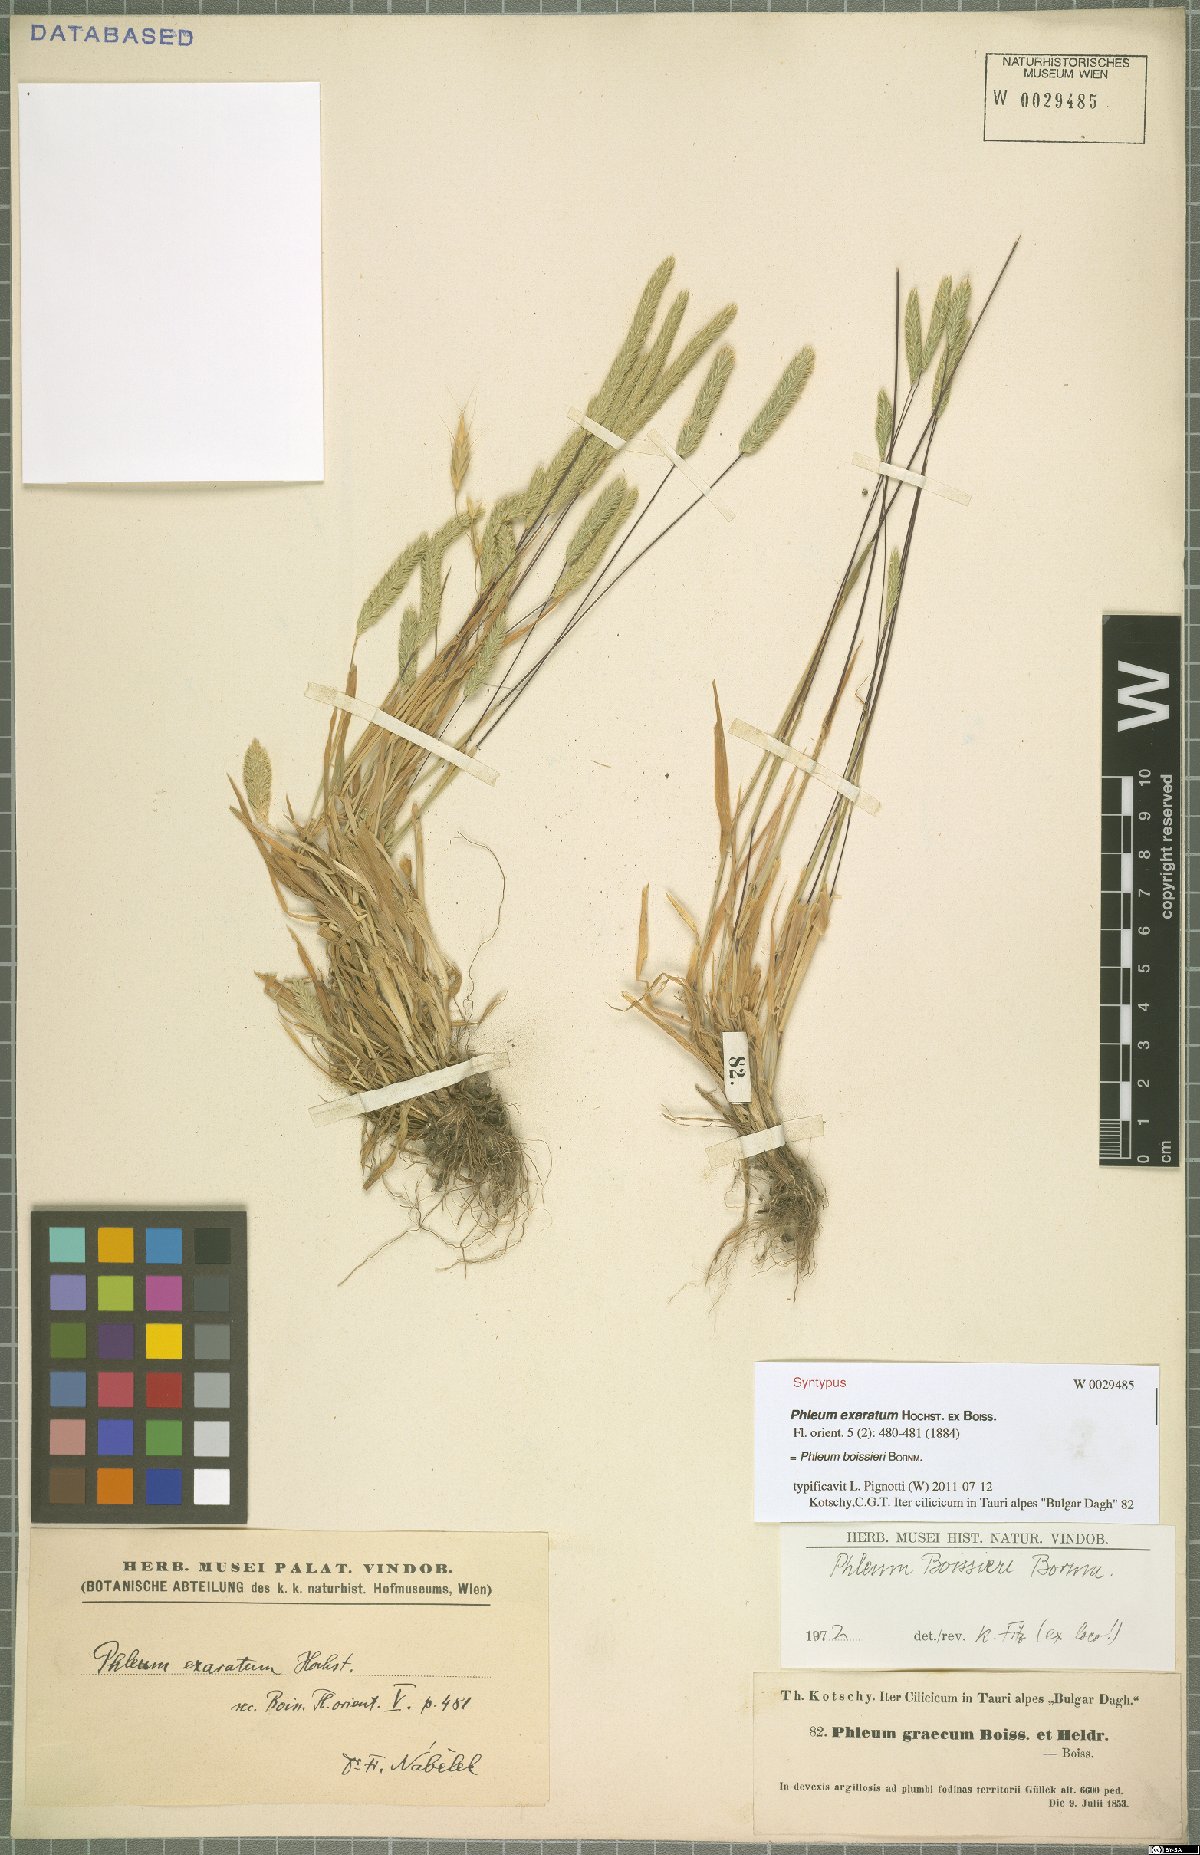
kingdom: Plantae
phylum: Tracheophyta
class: Liliopsida
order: Poales
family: Poaceae
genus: Phleum
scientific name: Phleum boissieri
